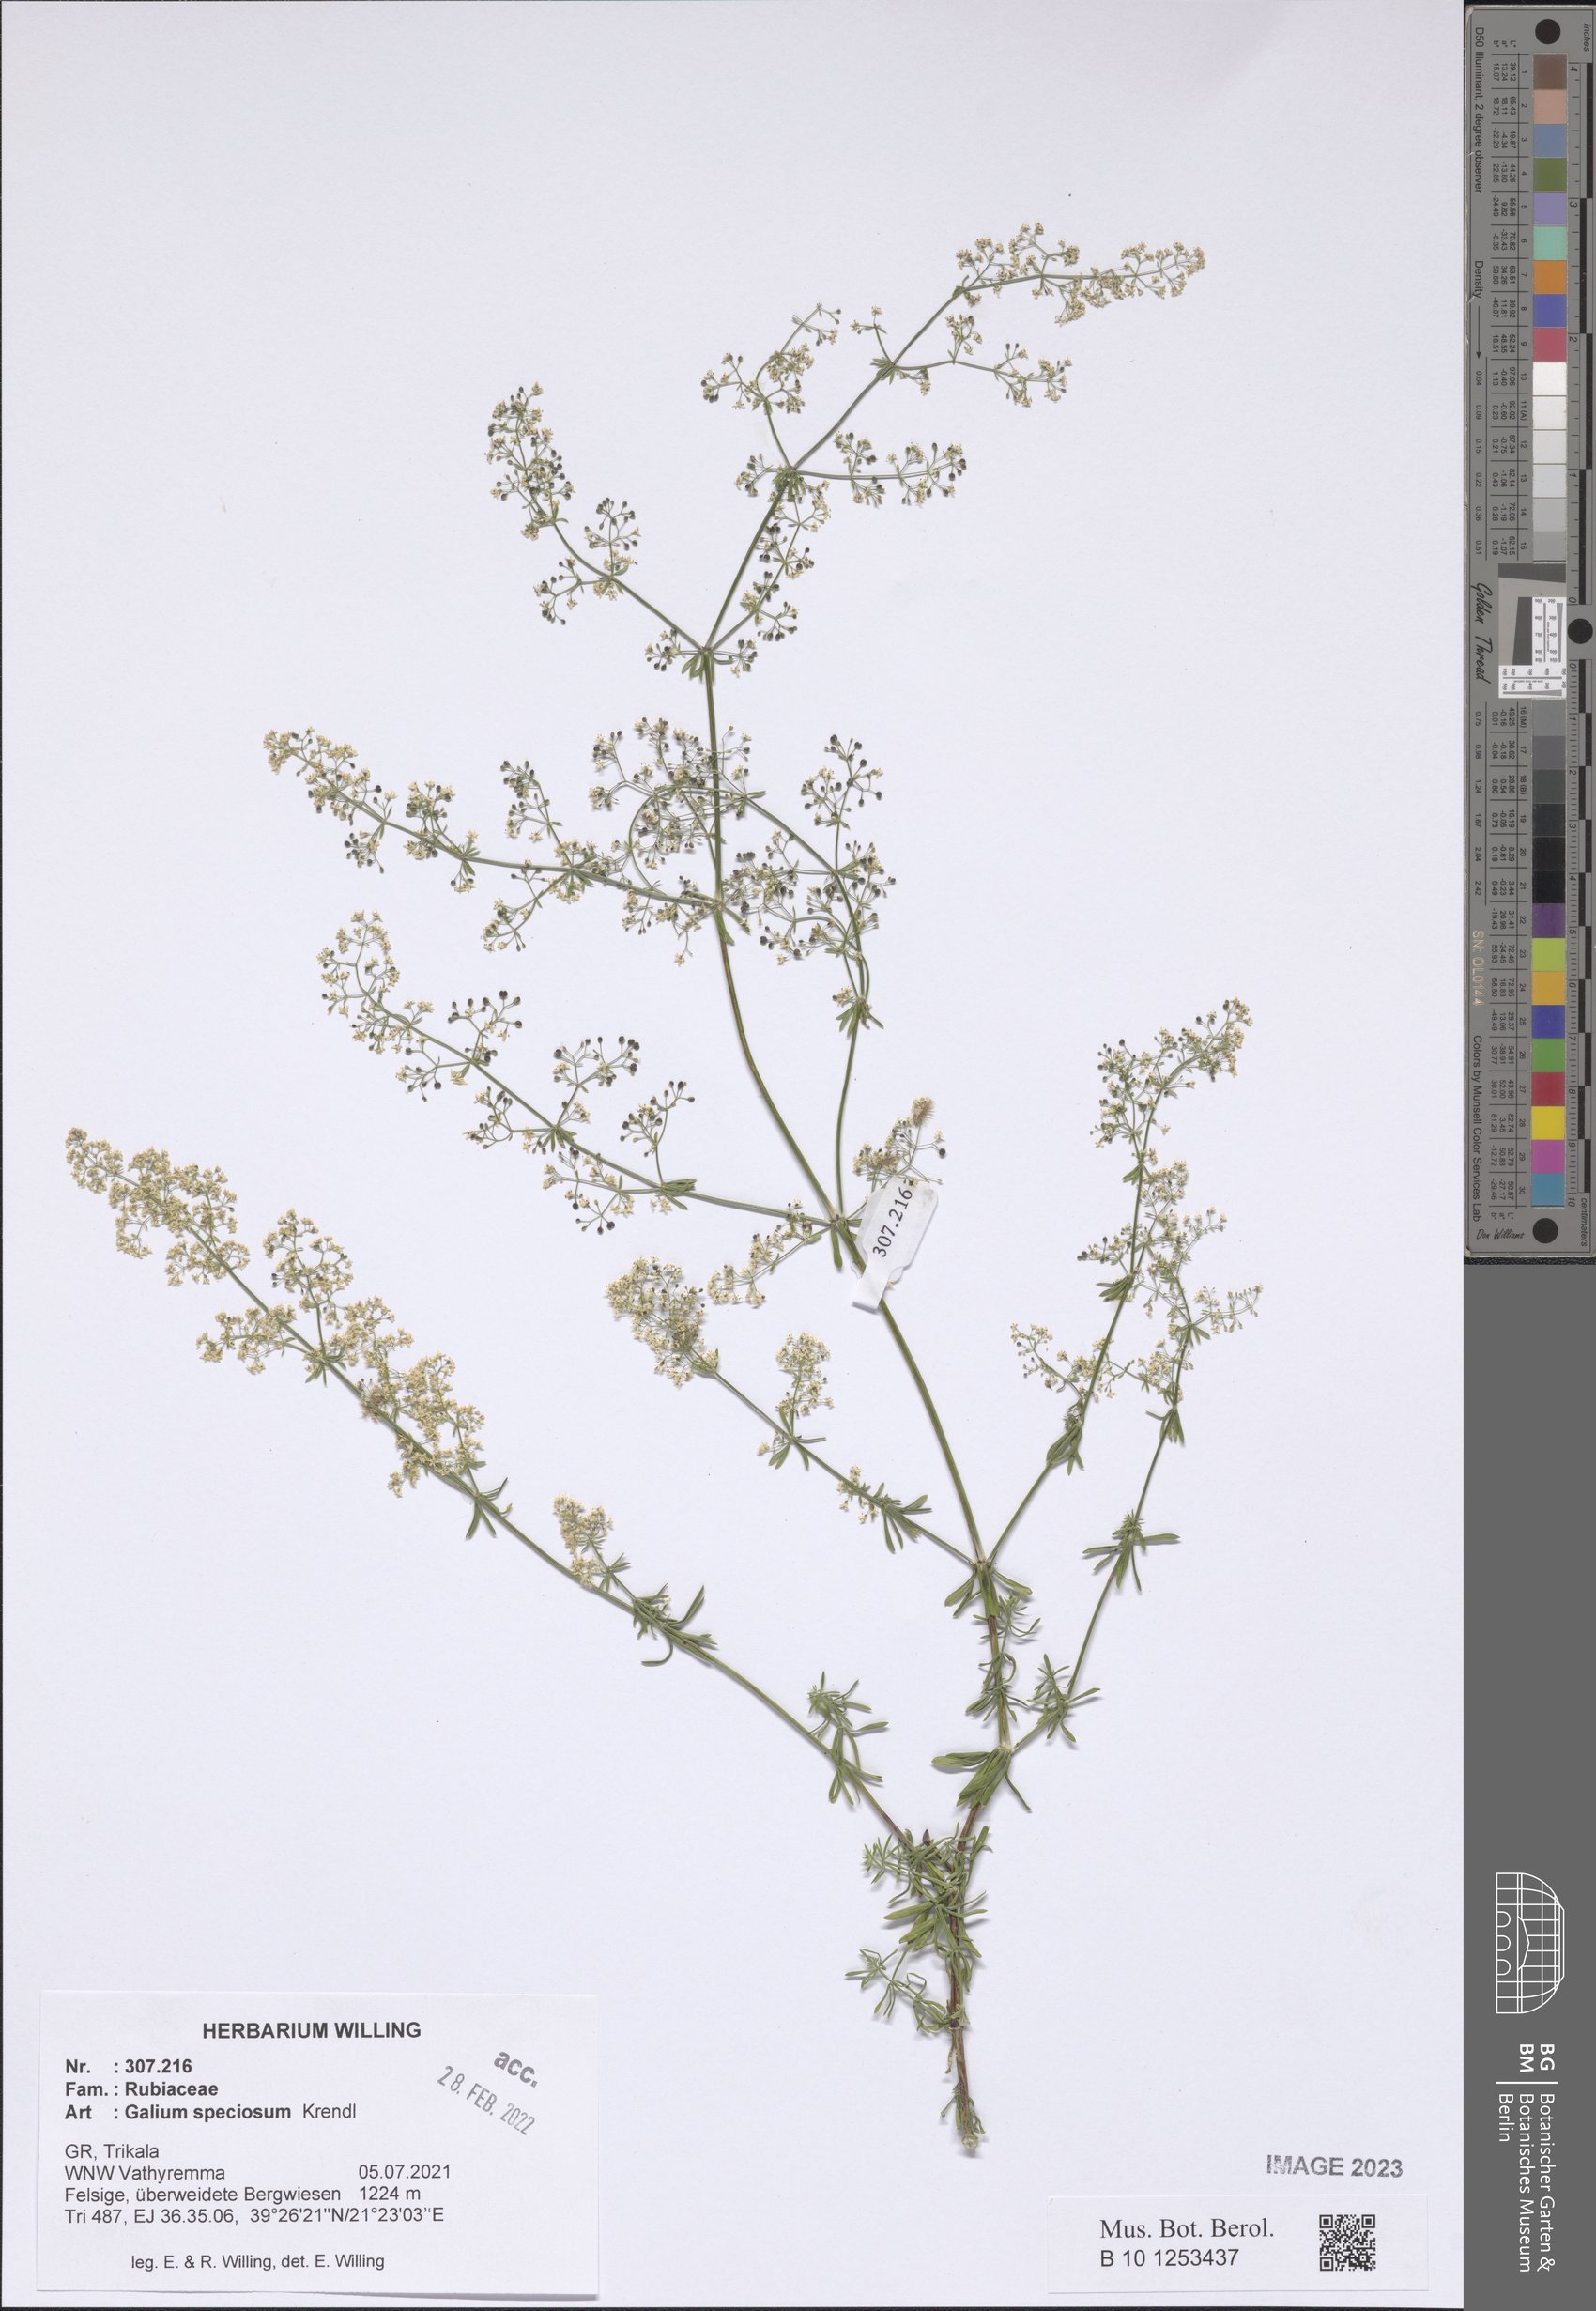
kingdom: Plantae
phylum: Tracheophyta
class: Magnoliopsida
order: Gentianales
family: Rubiaceae
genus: Galium
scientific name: Galium speciosum
